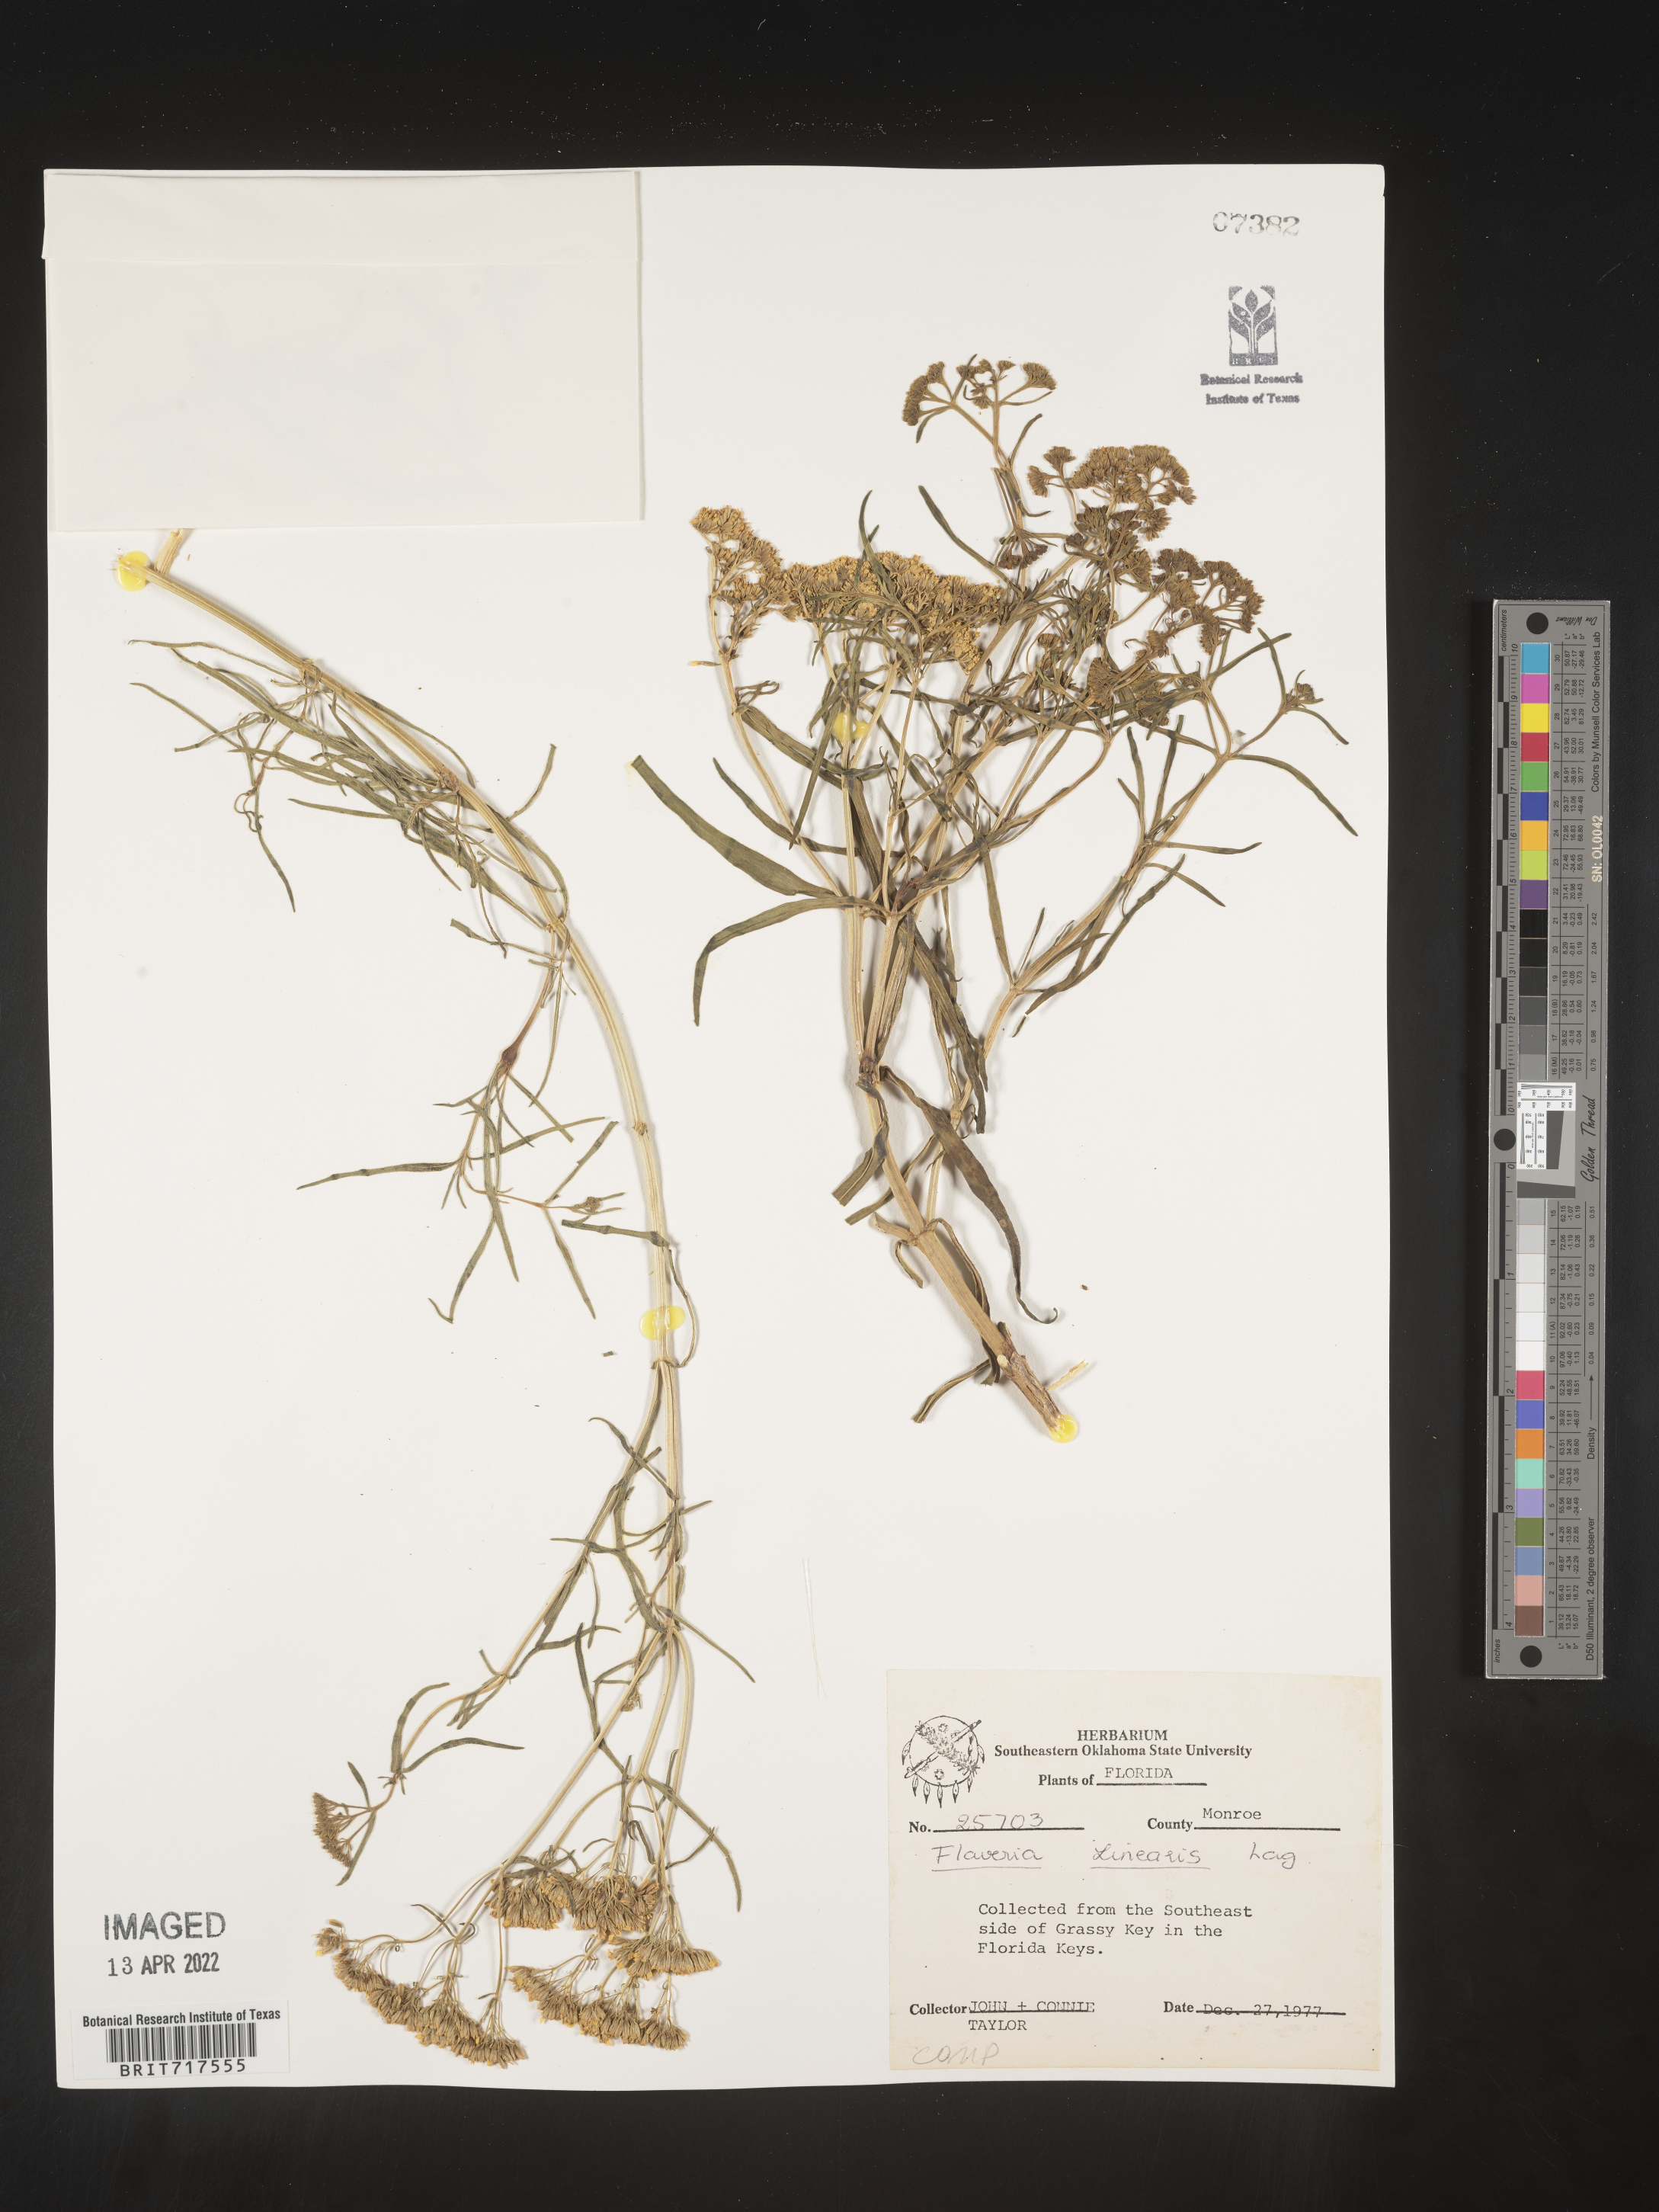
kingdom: Plantae
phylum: Tracheophyta
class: Magnoliopsida
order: Asterales
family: Asteraceae
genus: Flaveria
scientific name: Flaveria linearis
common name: Yellowtop
